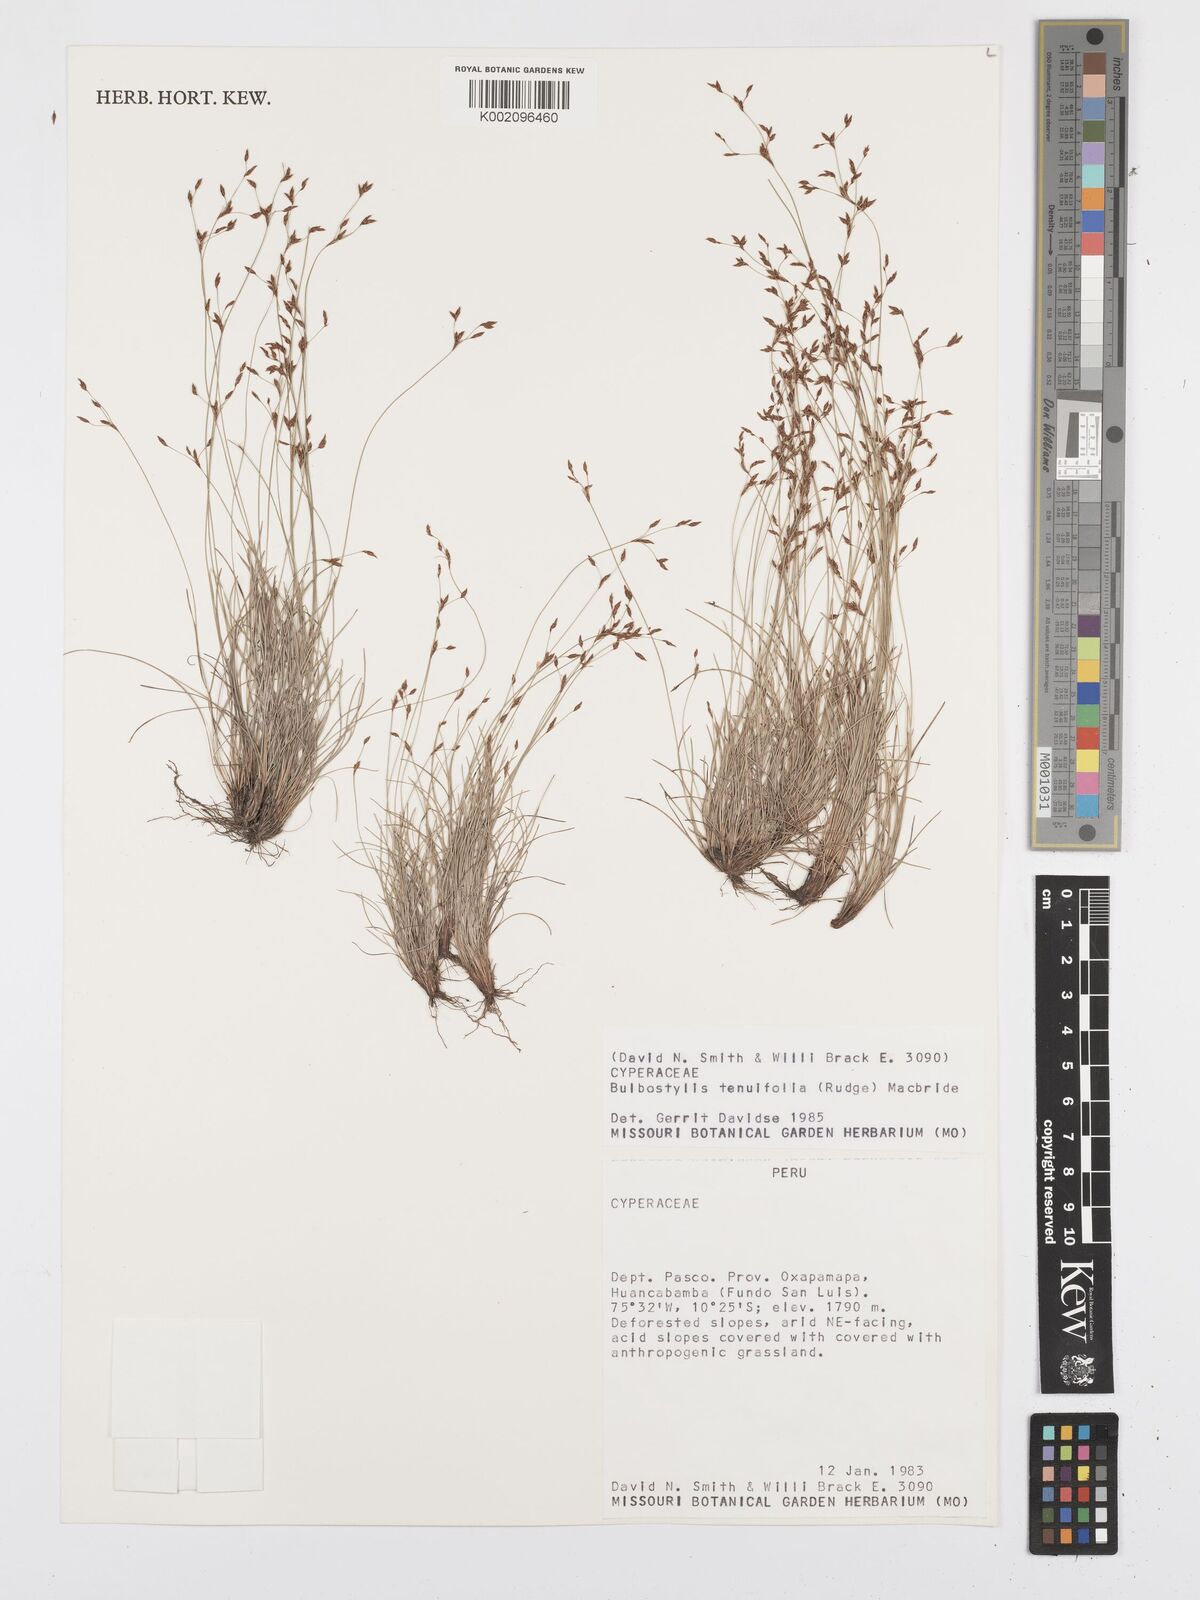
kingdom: Plantae
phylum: Tracheophyta
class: Liliopsida
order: Poales
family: Cyperaceae
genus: Bulbostylis
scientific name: Bulbostylis tenuifolia
